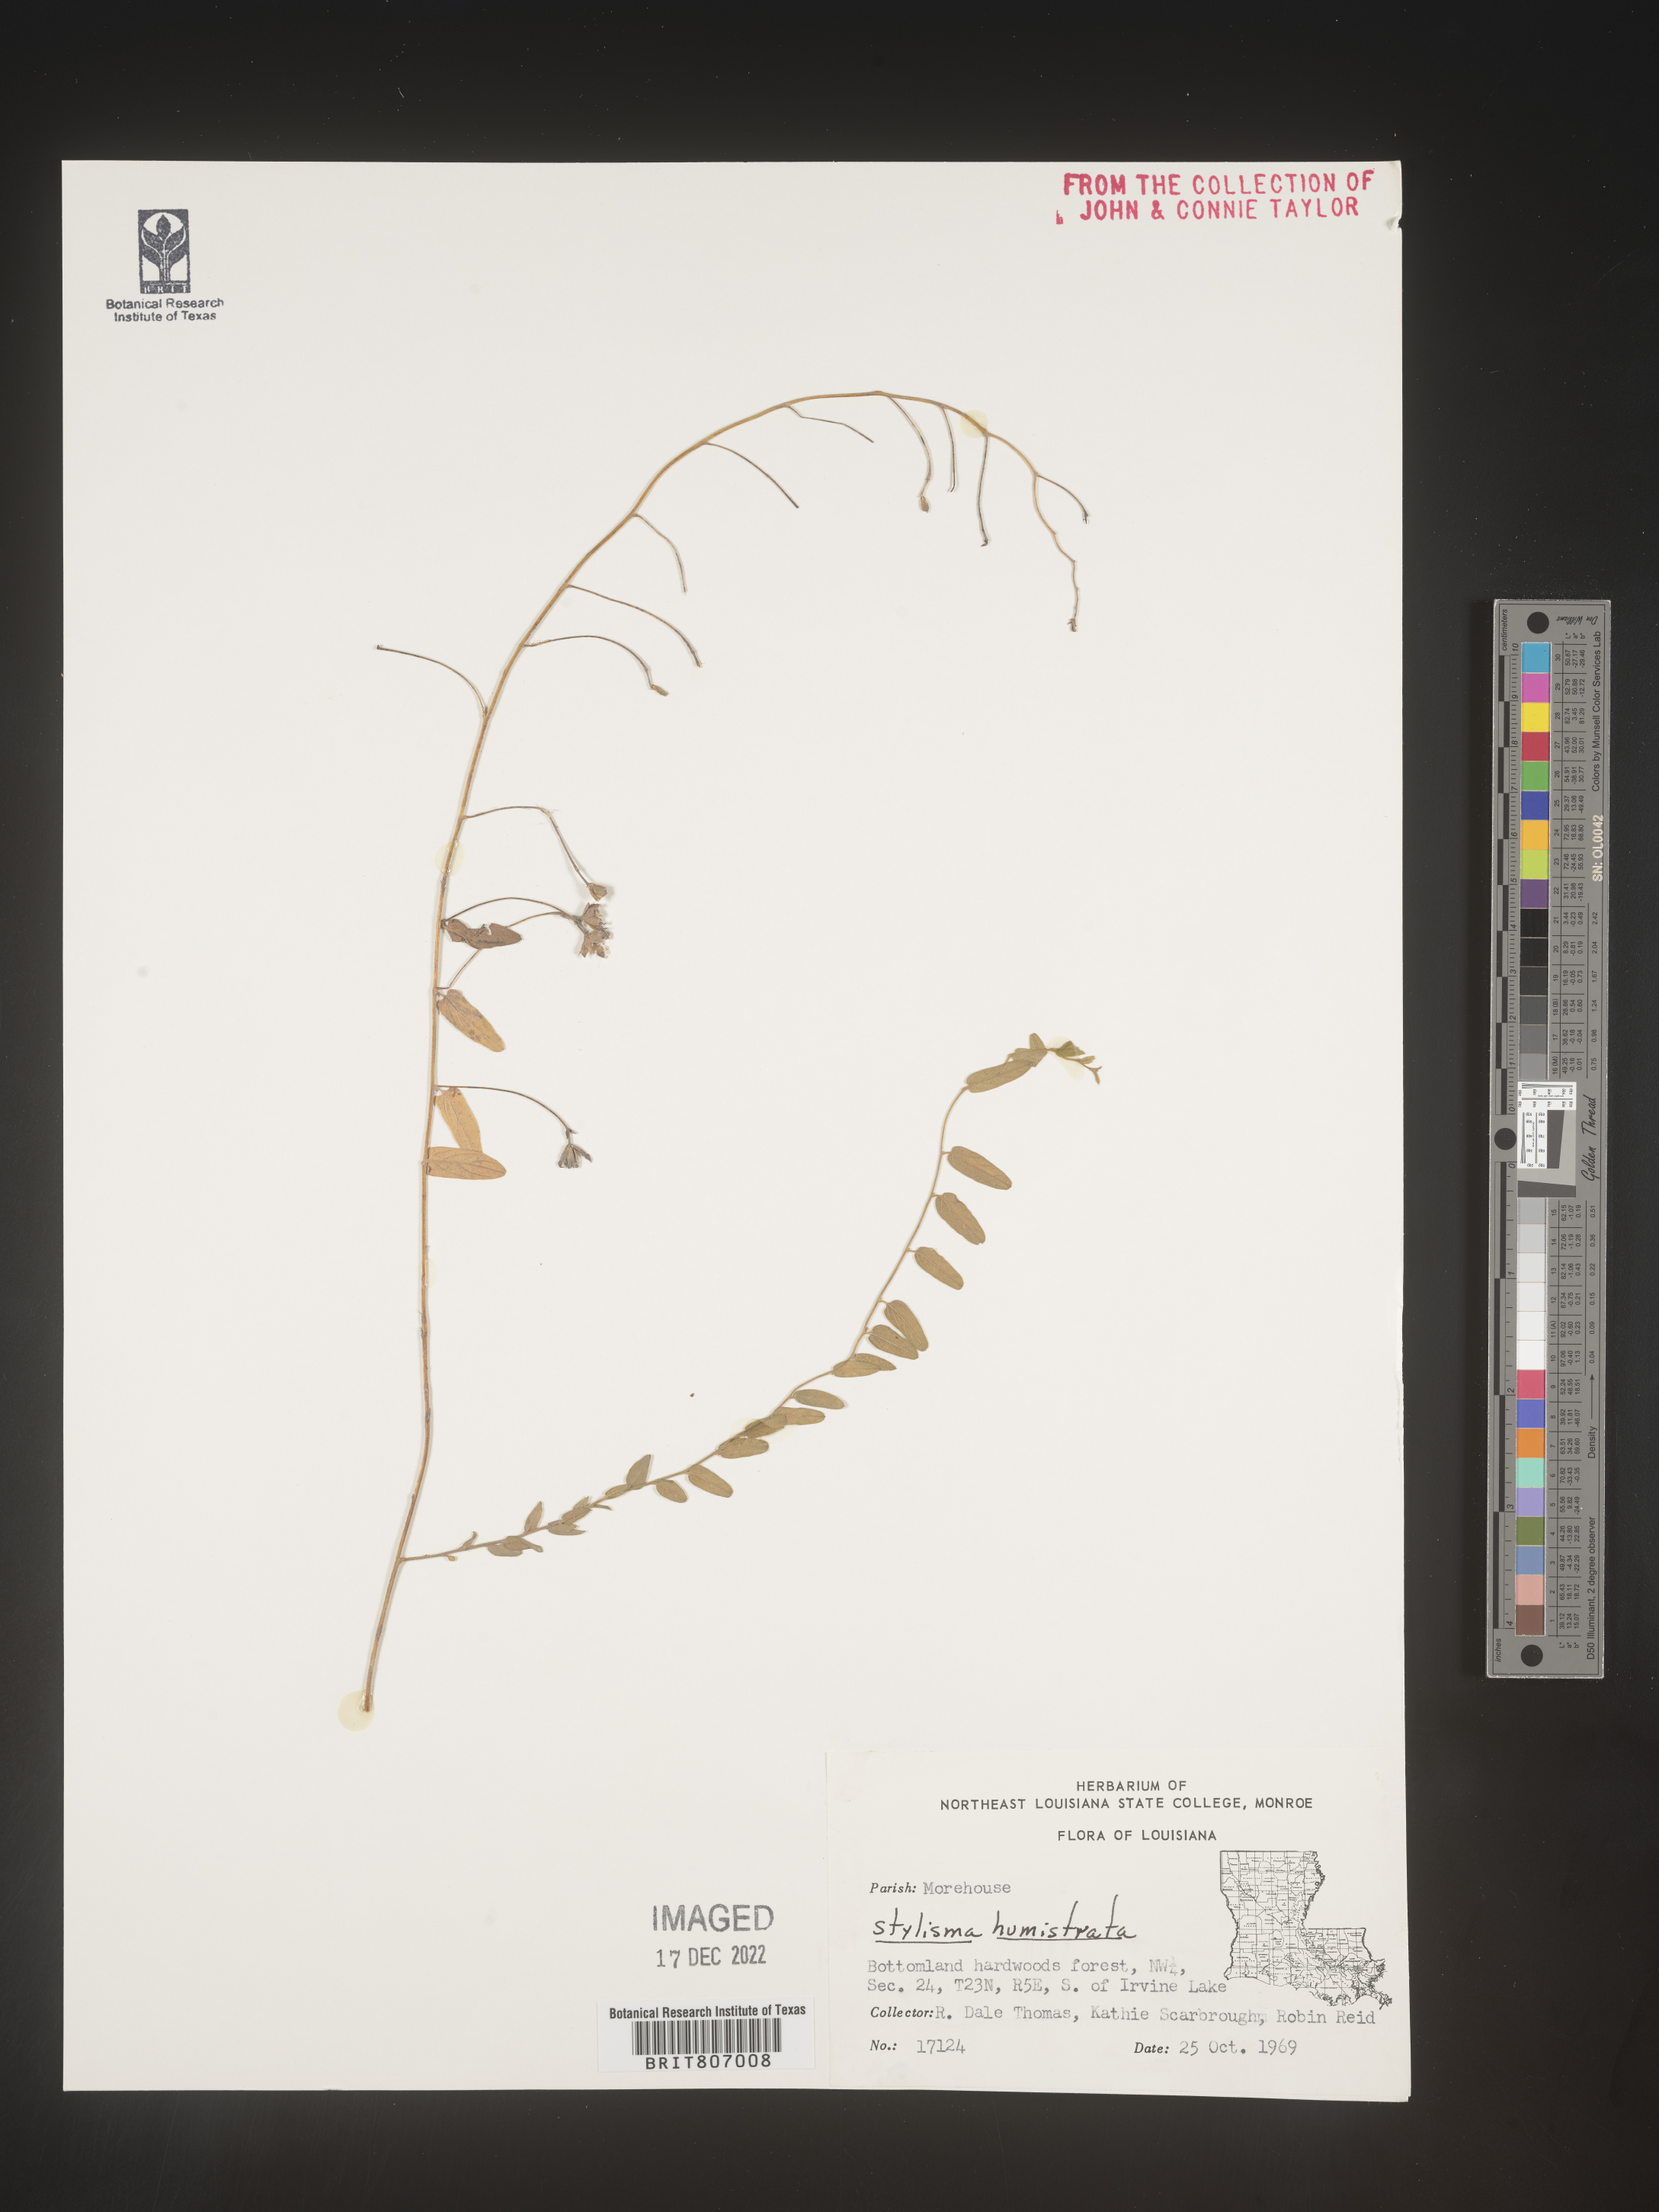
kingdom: Plantae
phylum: Tracheophyta
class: Magnoliopsida
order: Solanales
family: Convolvulaceae
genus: Stylisma
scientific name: Stylisma humistrata
